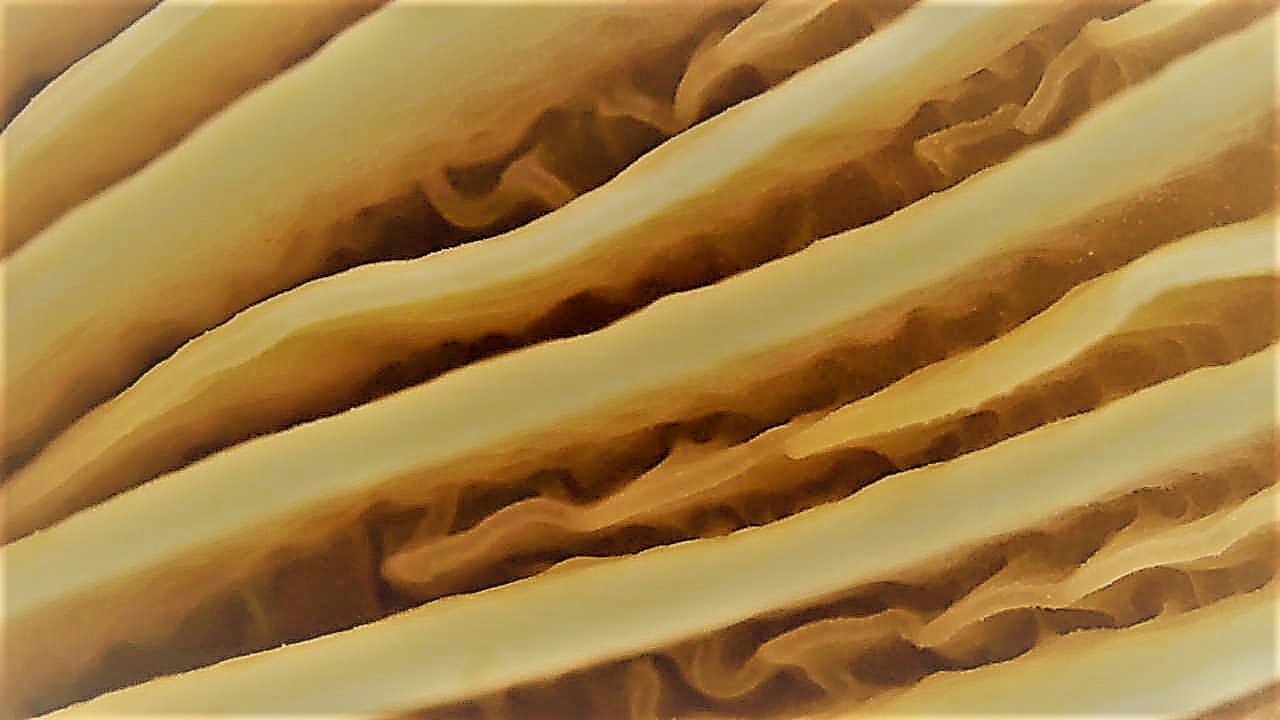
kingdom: Fungi
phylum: Basidiomycota
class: Agaricomycetes
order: Agaricales
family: Physalacriaceae
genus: Flammulina
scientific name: Flammulina
